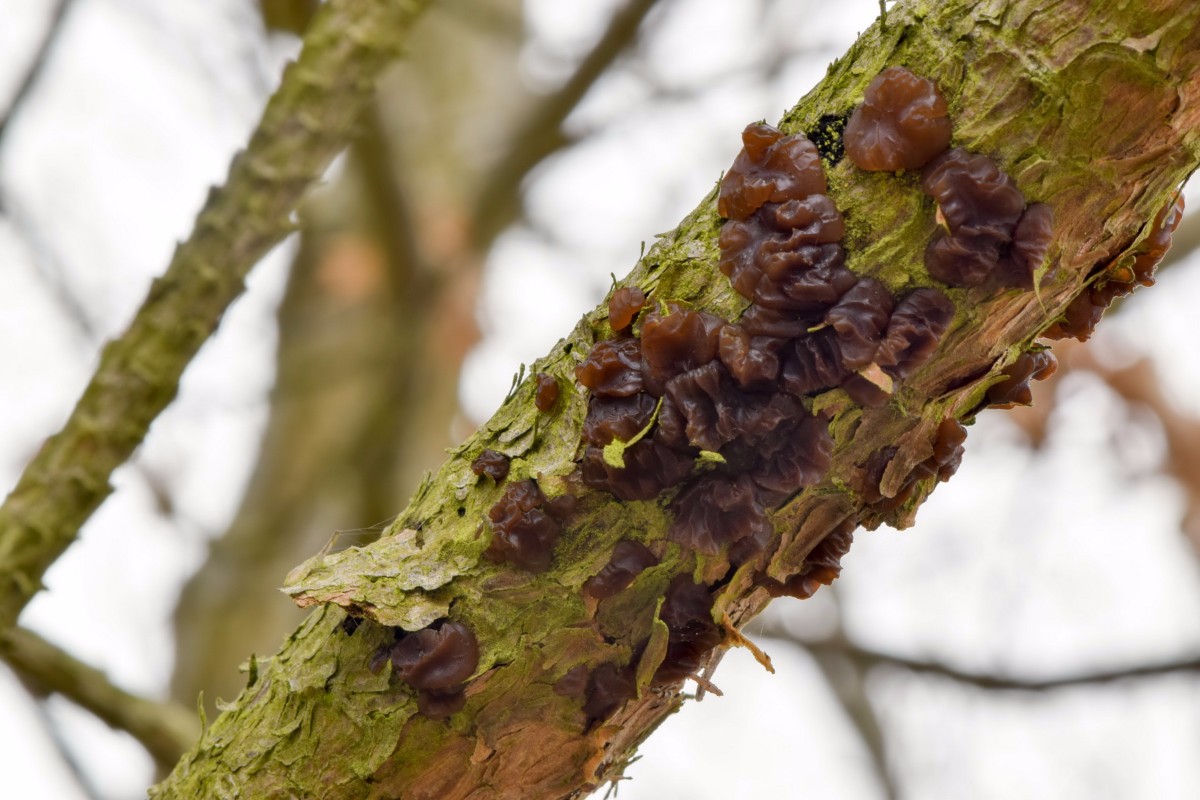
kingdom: Fungi
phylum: Basidiomycota
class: Agaricomycetes
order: Auriculariales
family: Auriculariaceae
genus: Exidia
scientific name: Exidia saccharina
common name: kandis-bævretop
